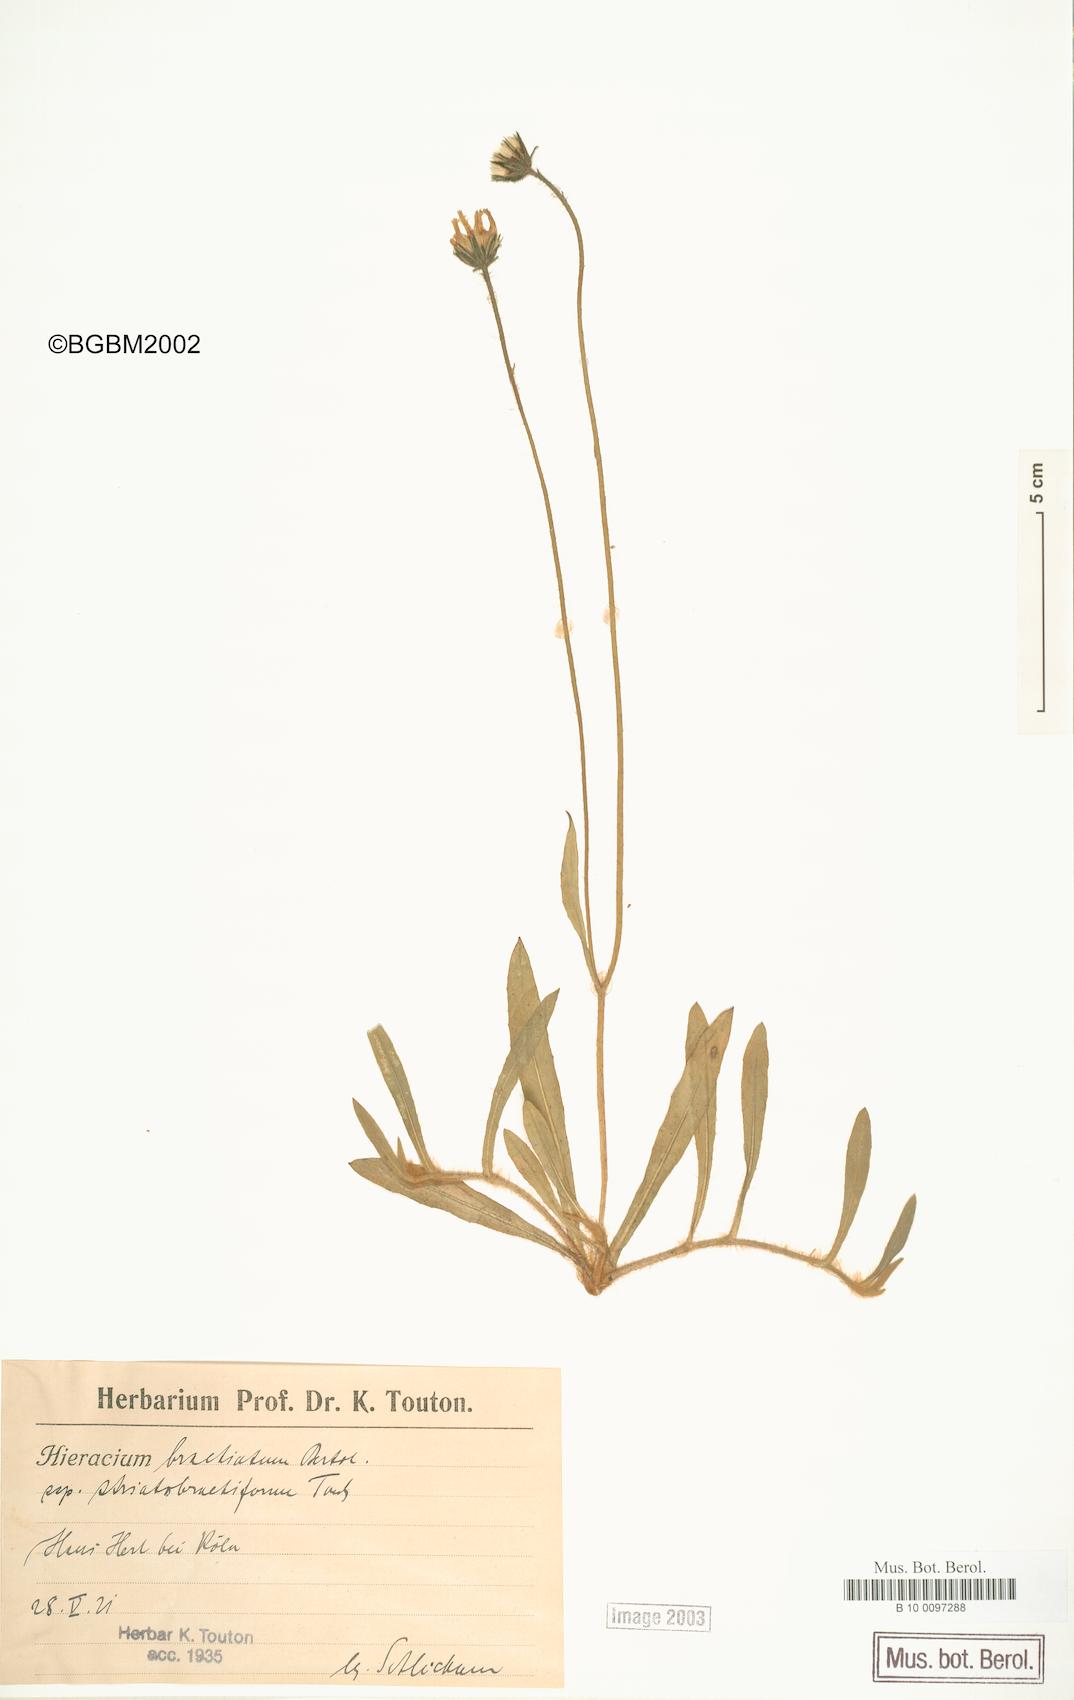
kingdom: Plantae
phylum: Tracheophyta
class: Magnoliopsida
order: Asterales
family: Asteraceae
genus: Pilosella
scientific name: Pilosella acutifolia
